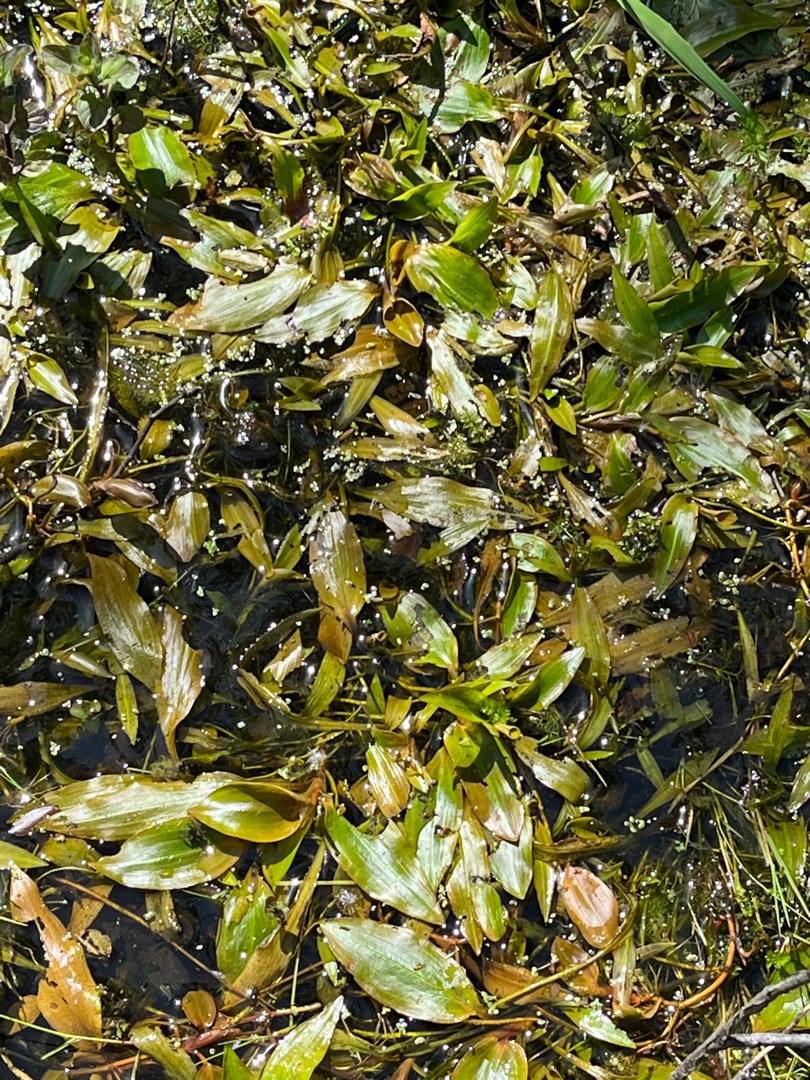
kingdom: Plantae
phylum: Tracheophyta
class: Liliopsida
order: Alismatales
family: Potamogetonaceae
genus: Potamogeton
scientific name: Potamogeton polygonifolius
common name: Aflangbladet vandaks
